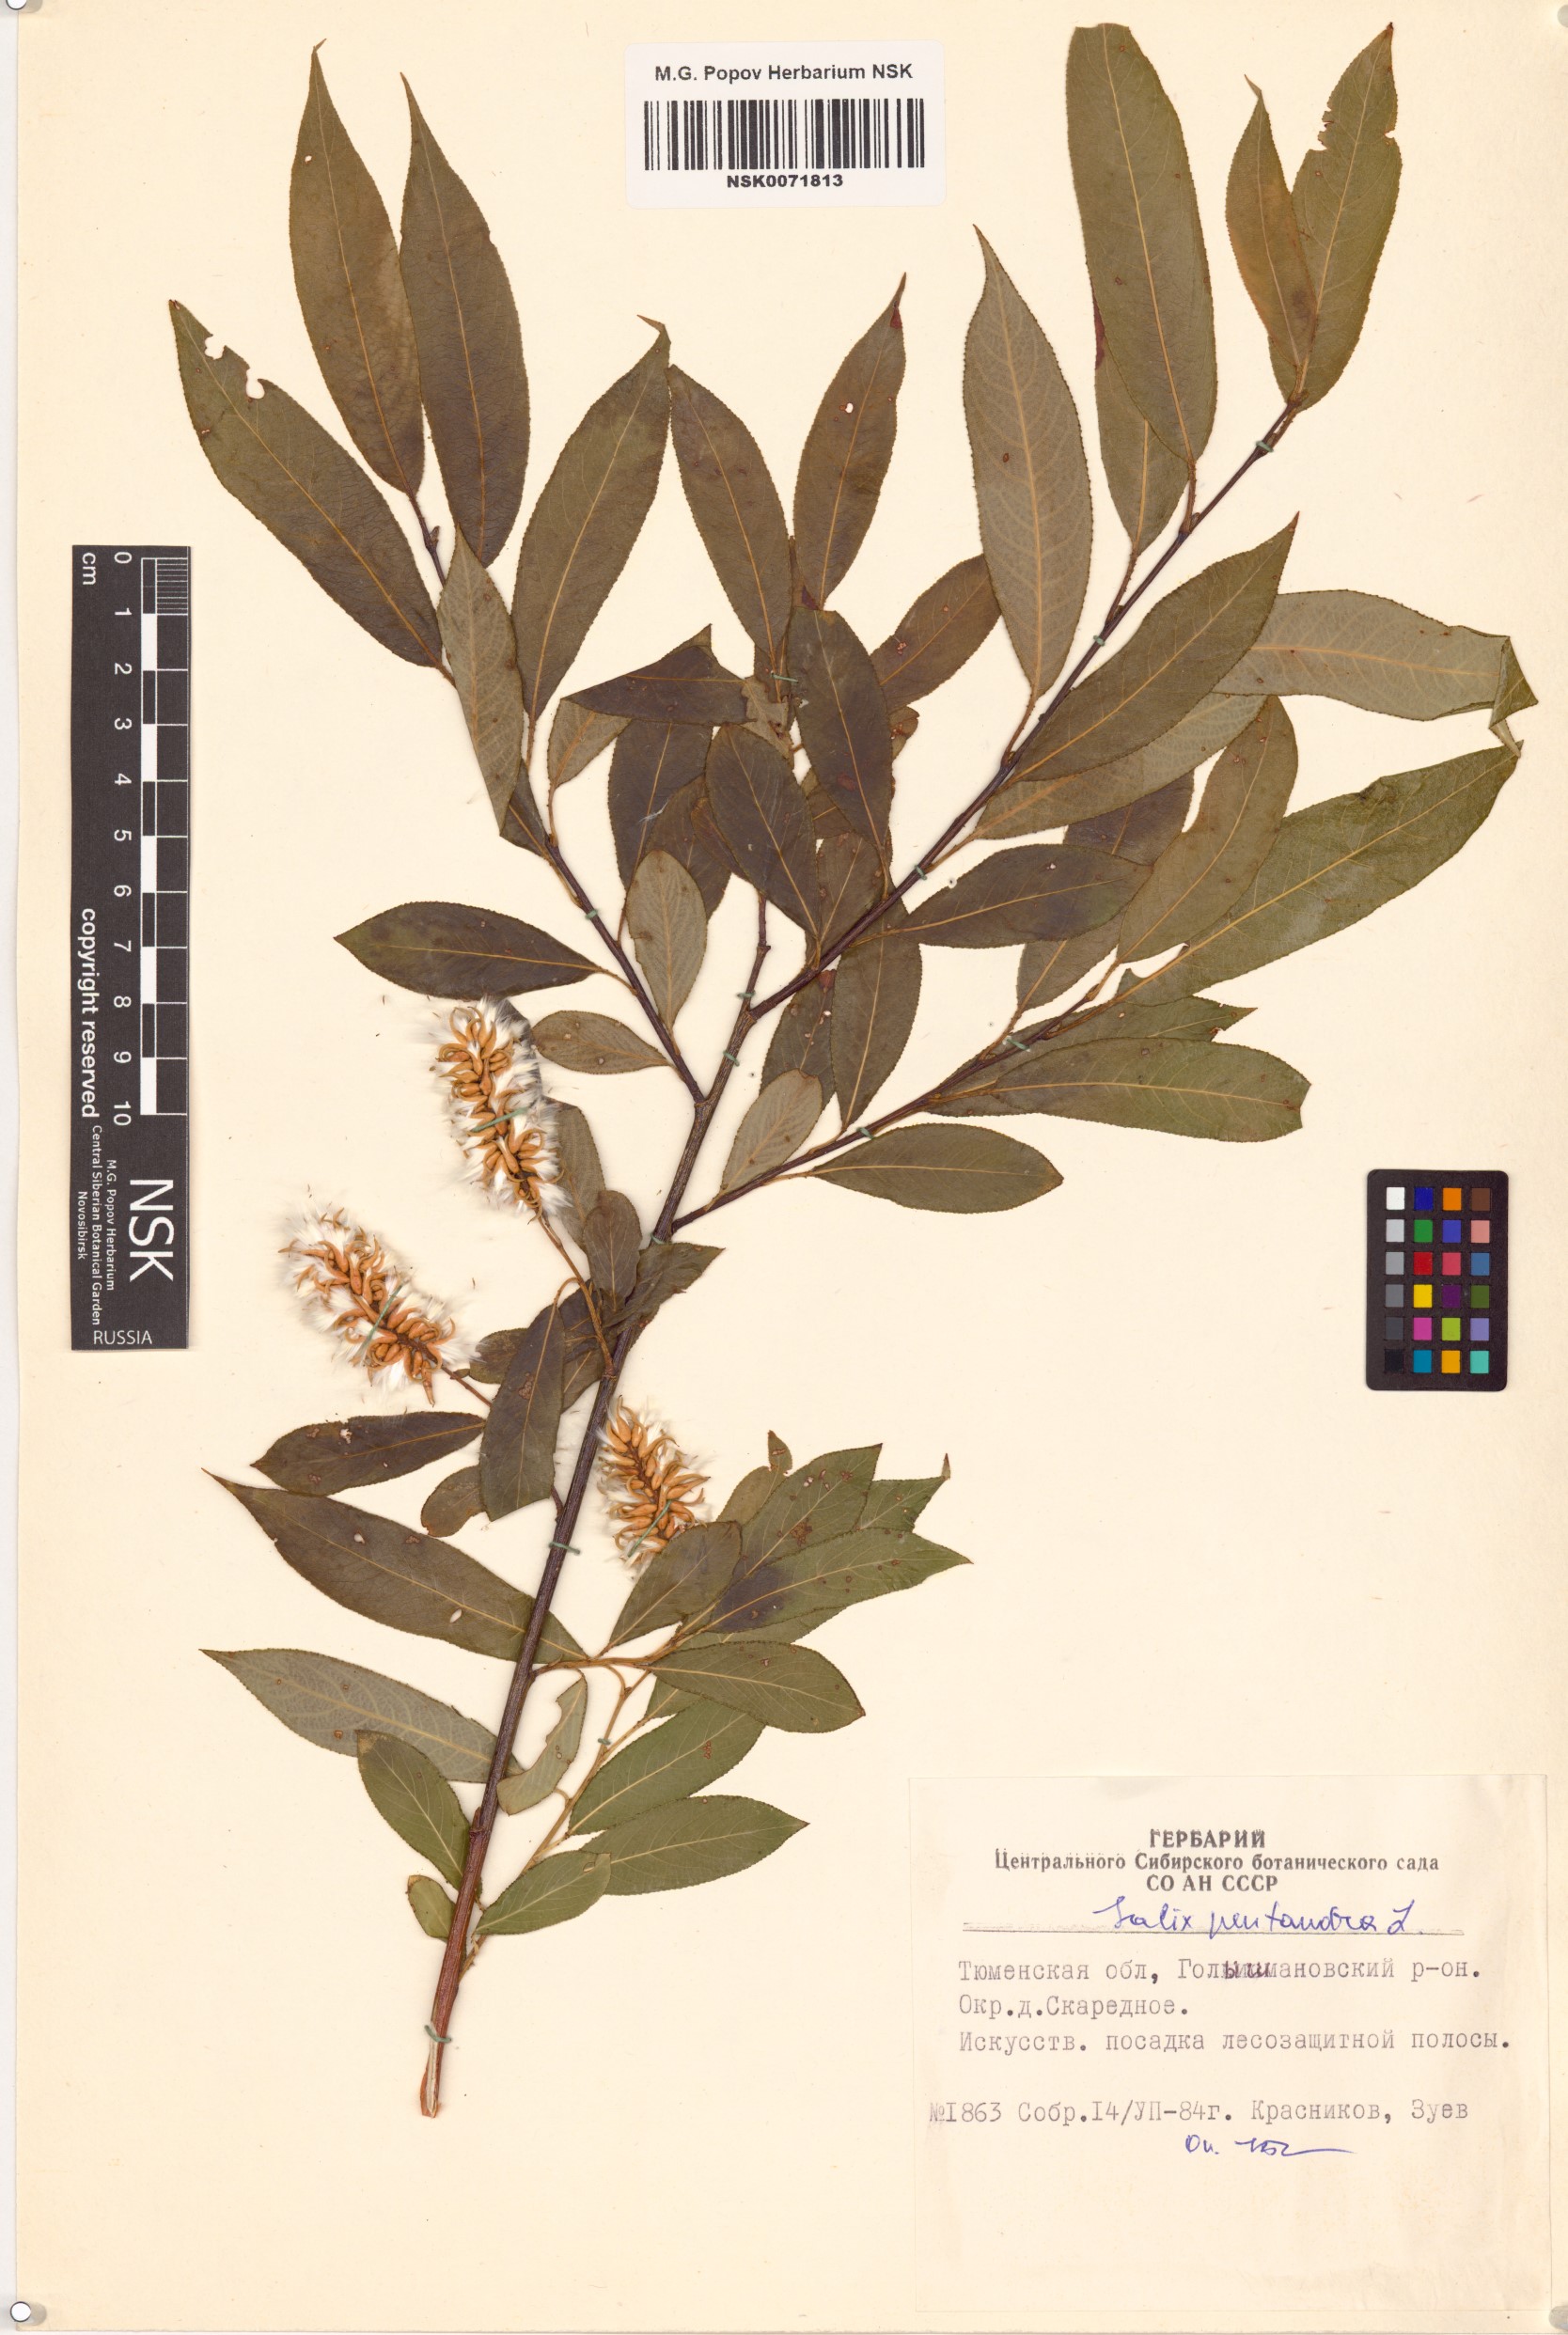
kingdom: Plantae
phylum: Tracheophyta
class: Magnoliopsida
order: Malpighiales
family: Salicaceae
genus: Salix
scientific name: Salix pentandra
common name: Bay willow
